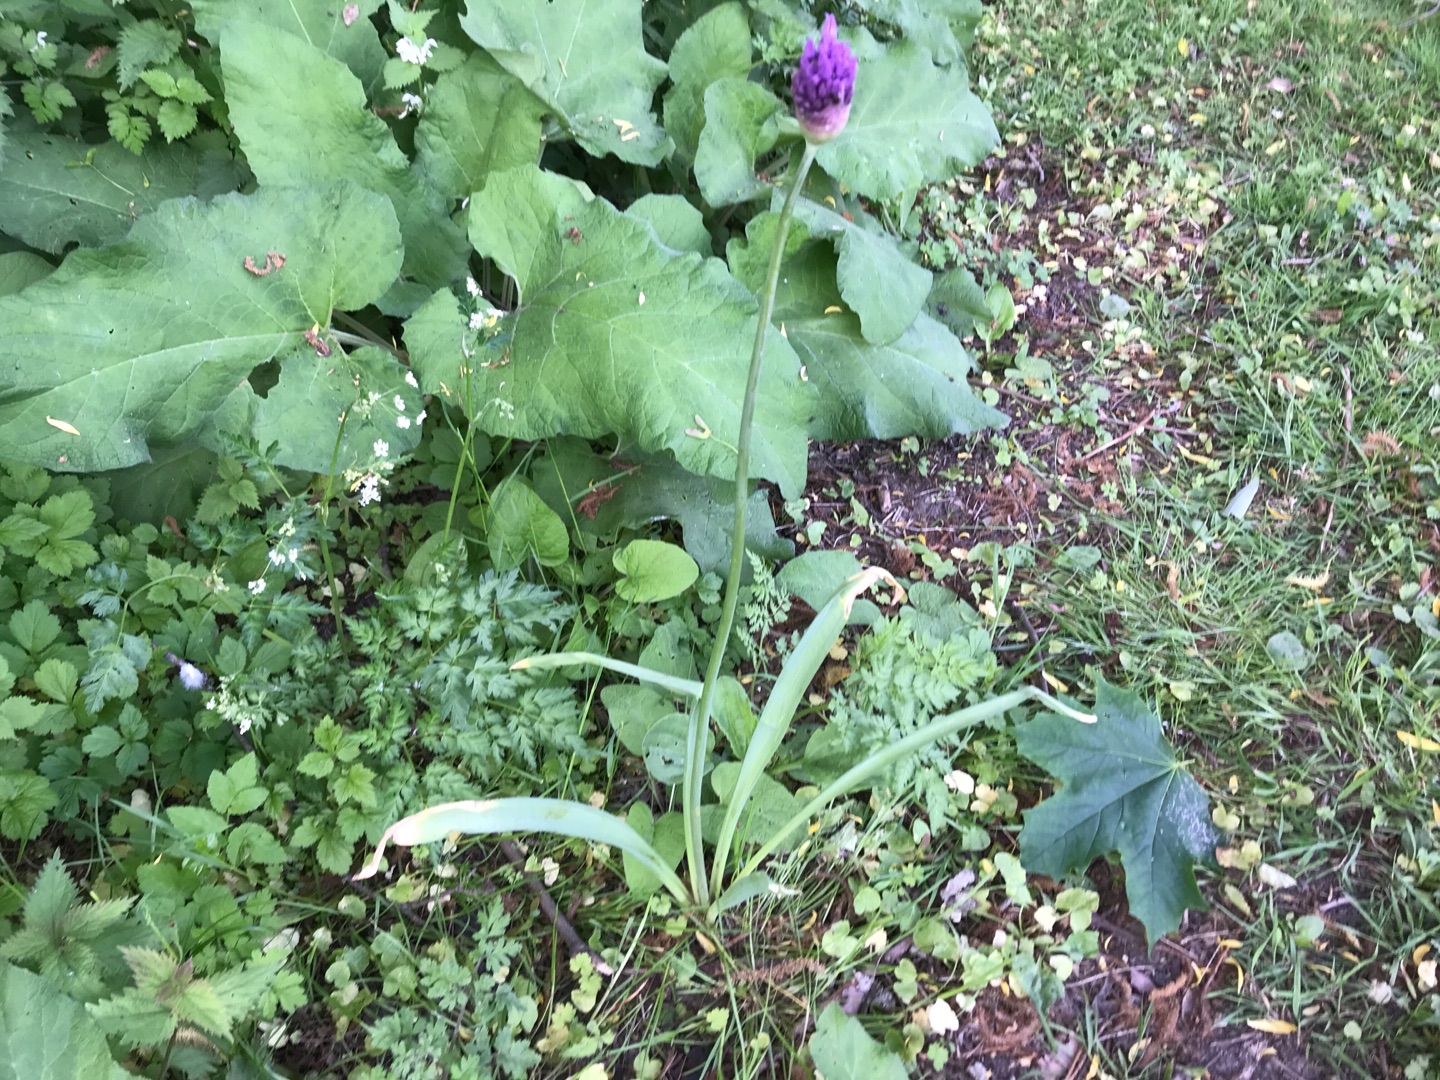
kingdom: Plantae
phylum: Tracheophyta
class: Liliopsida
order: Asparagales
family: Amaryllidaceae
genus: Allium
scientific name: Allium hollandicum
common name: Kirgisisk pryd-løg
